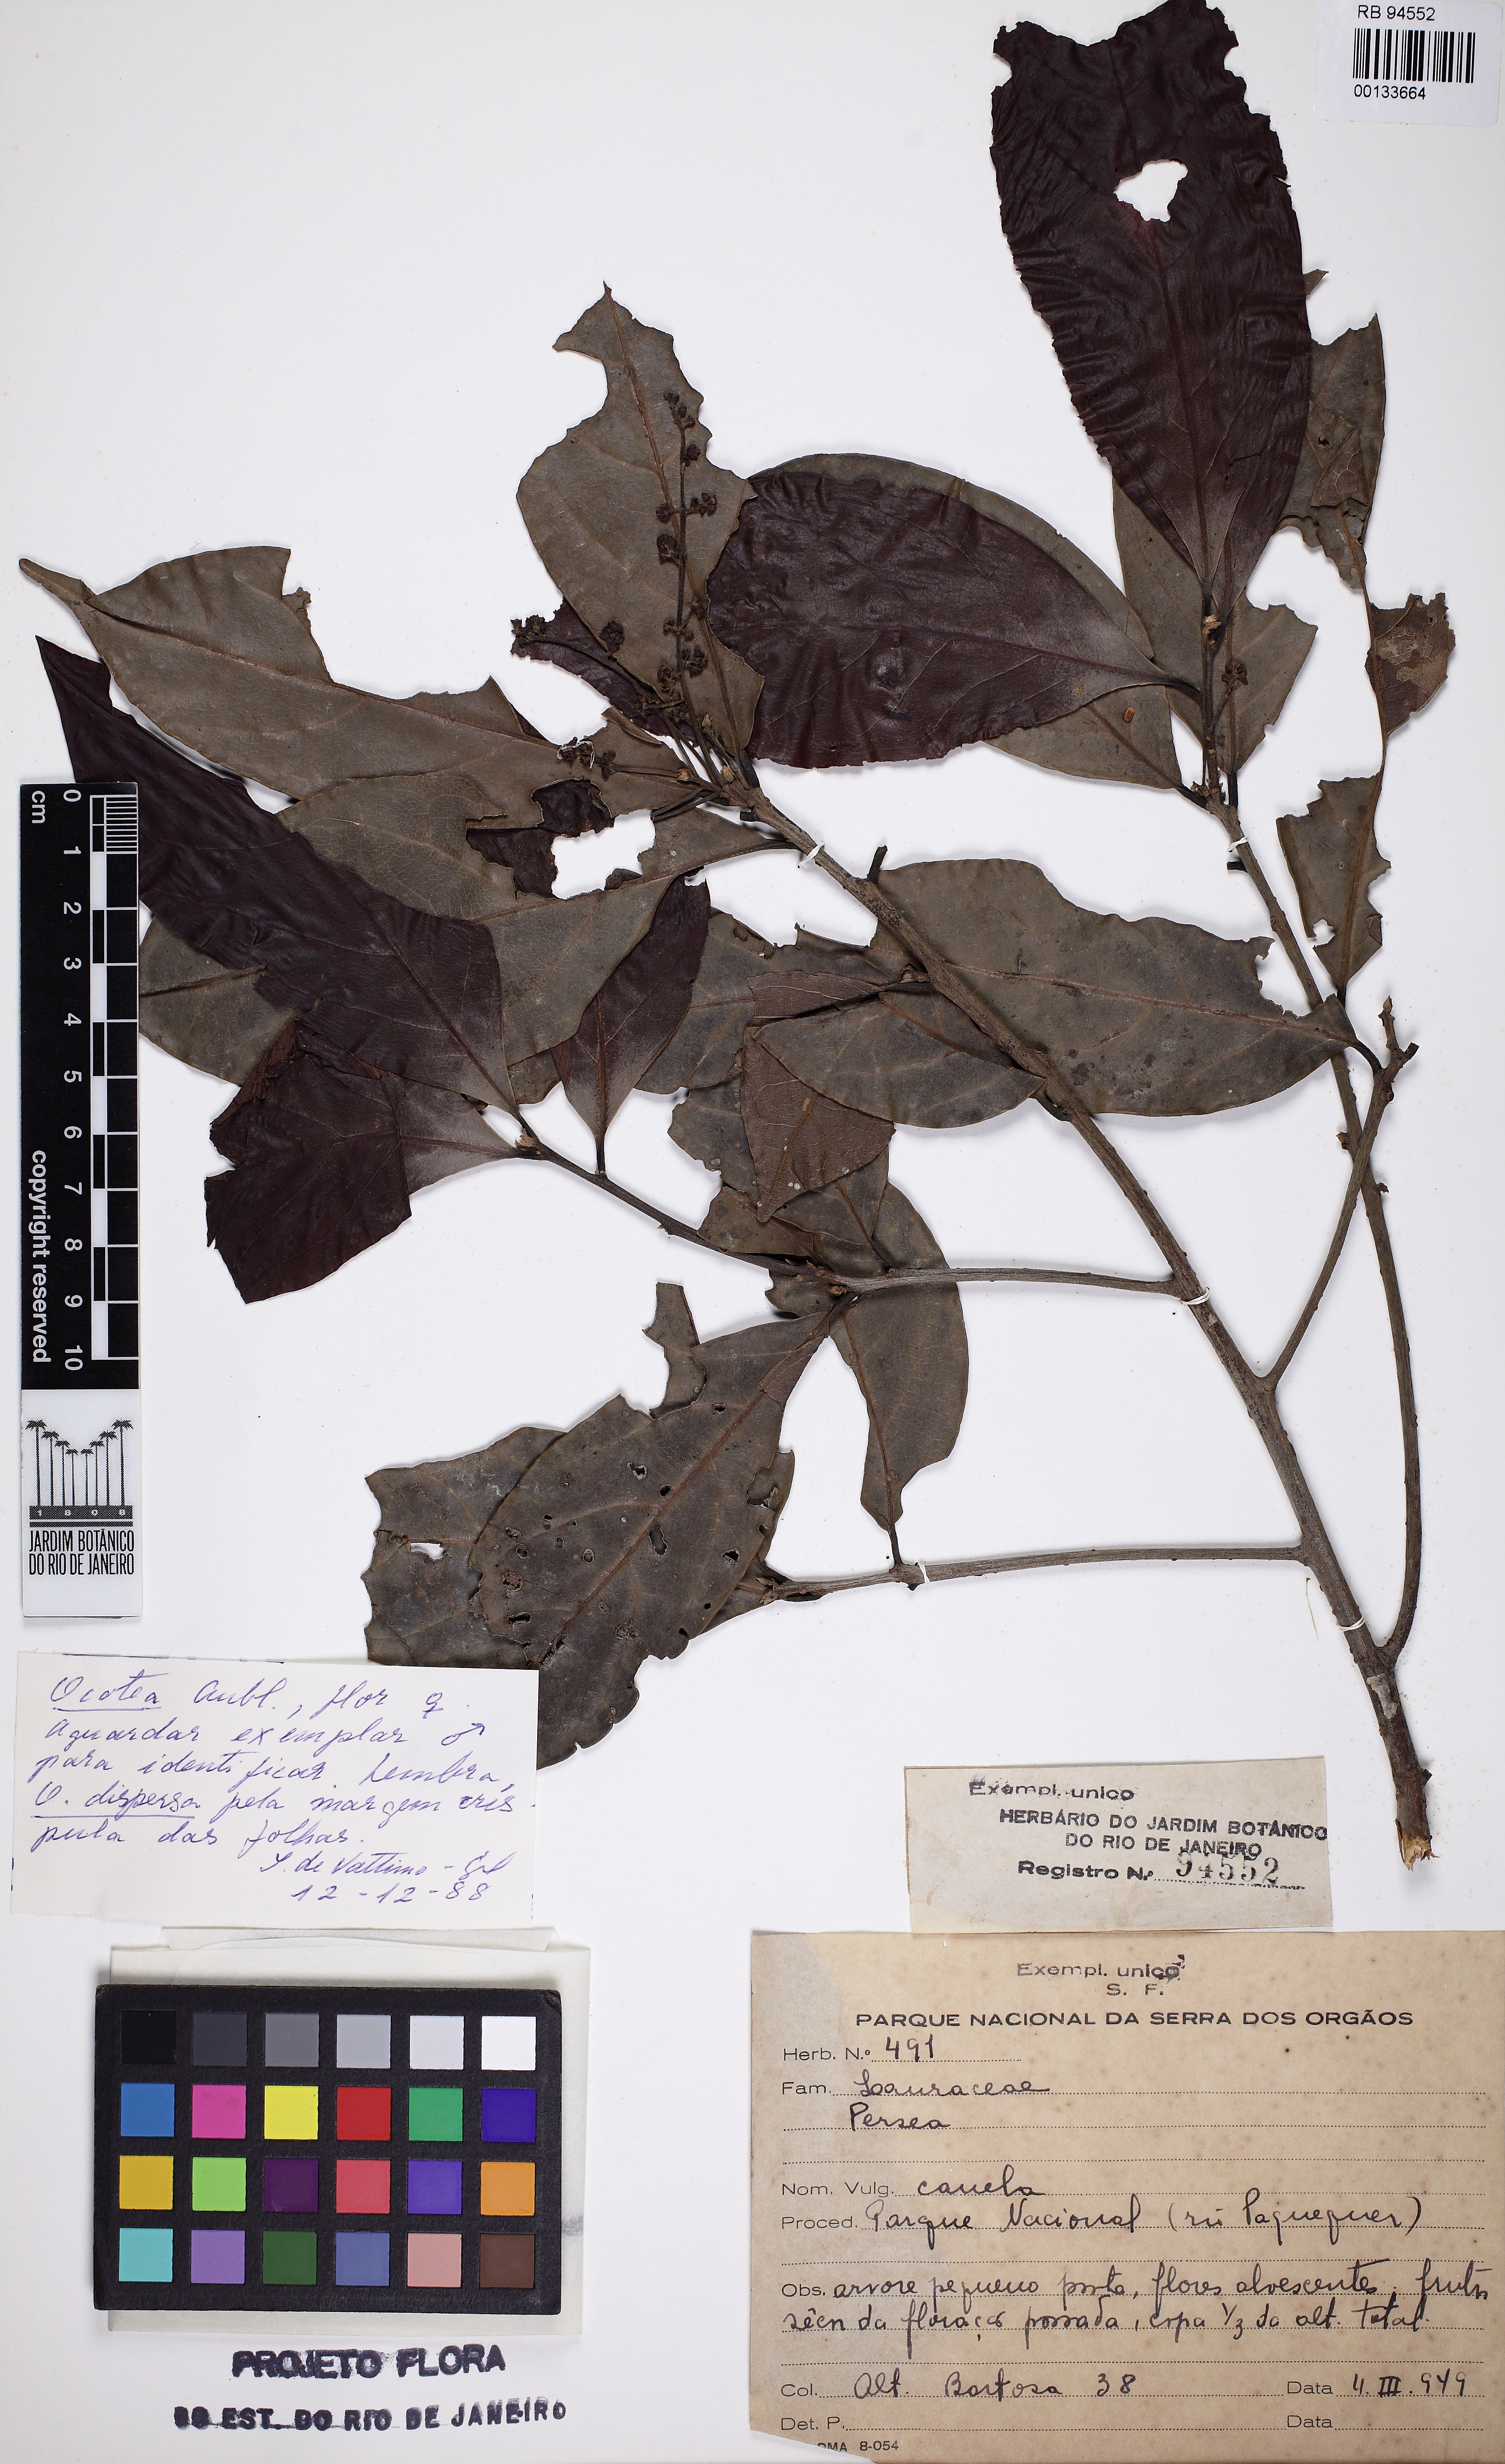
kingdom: Plantae
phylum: Tracheophyta
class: Magnoliopsida
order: Laurales
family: Lauraceae
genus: Persea
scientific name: Persea
